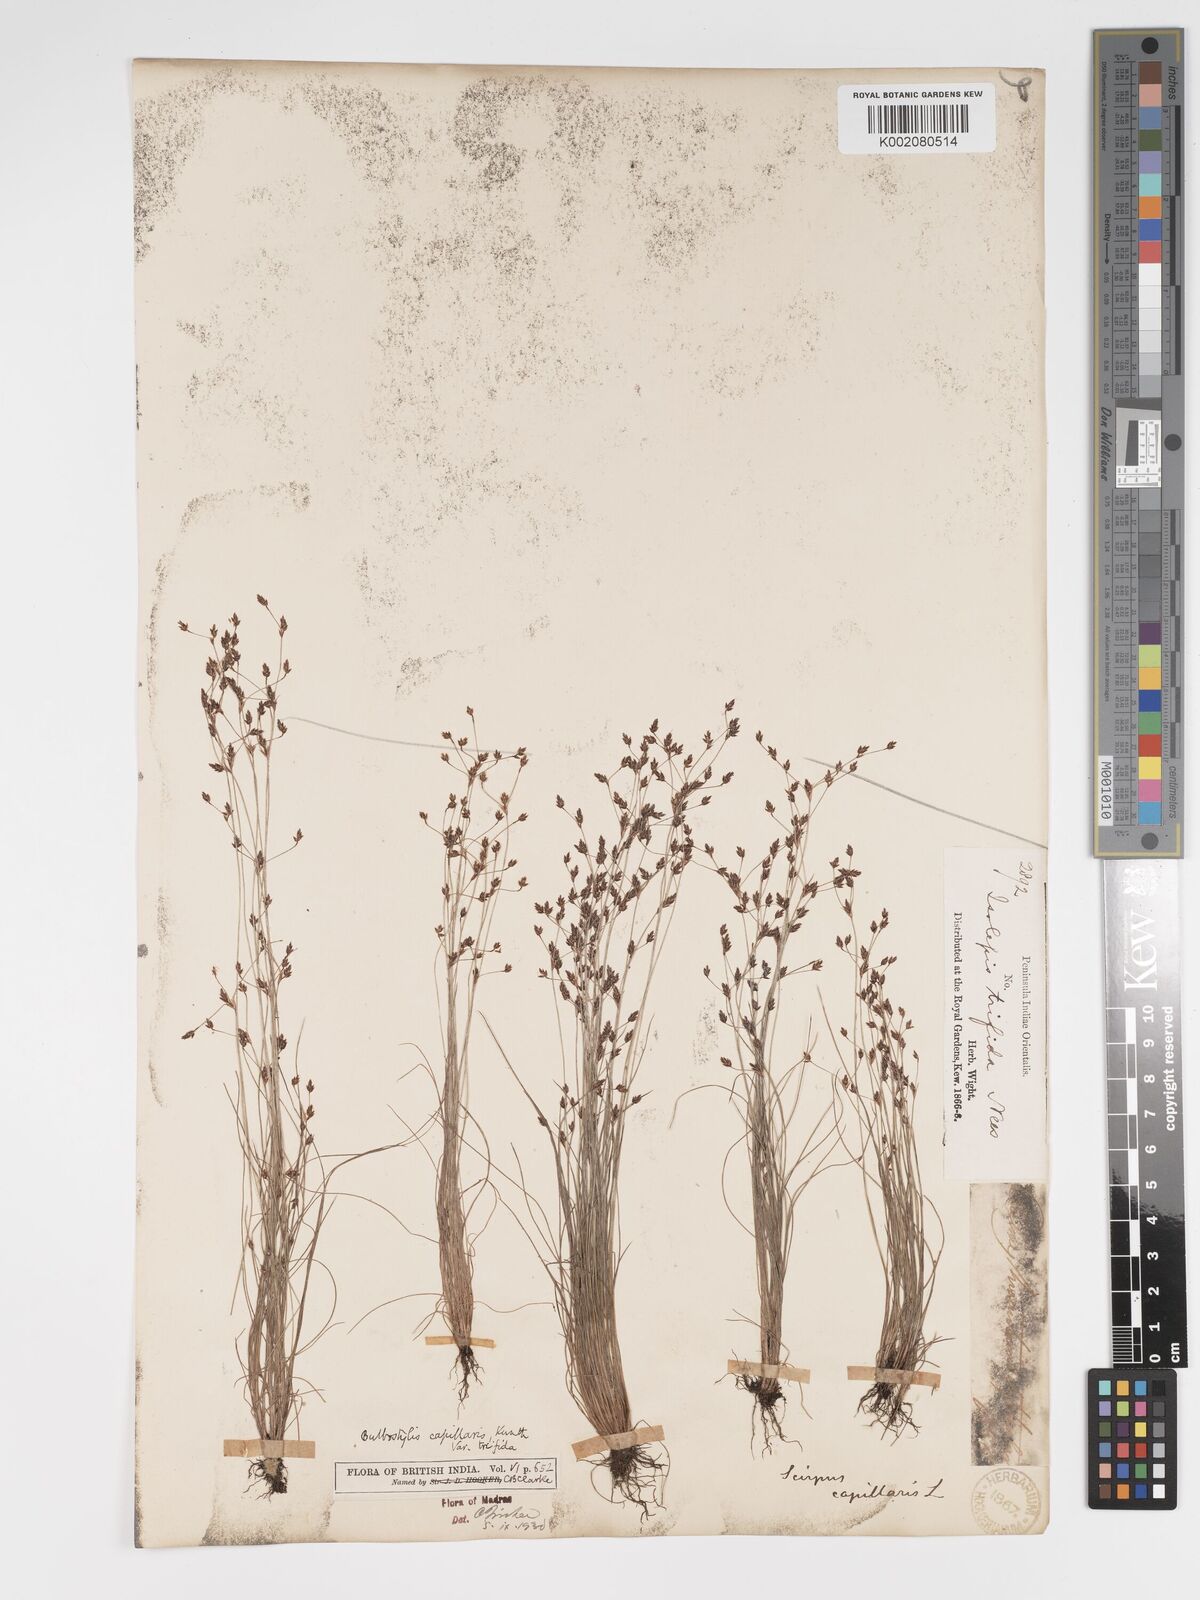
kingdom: Plantae
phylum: Tracheophyta
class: Liliopsida
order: Poales
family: Cyperaceae
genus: Bulbostylis
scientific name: Bulbostylis capillaris
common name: Densetuft hairsedge
